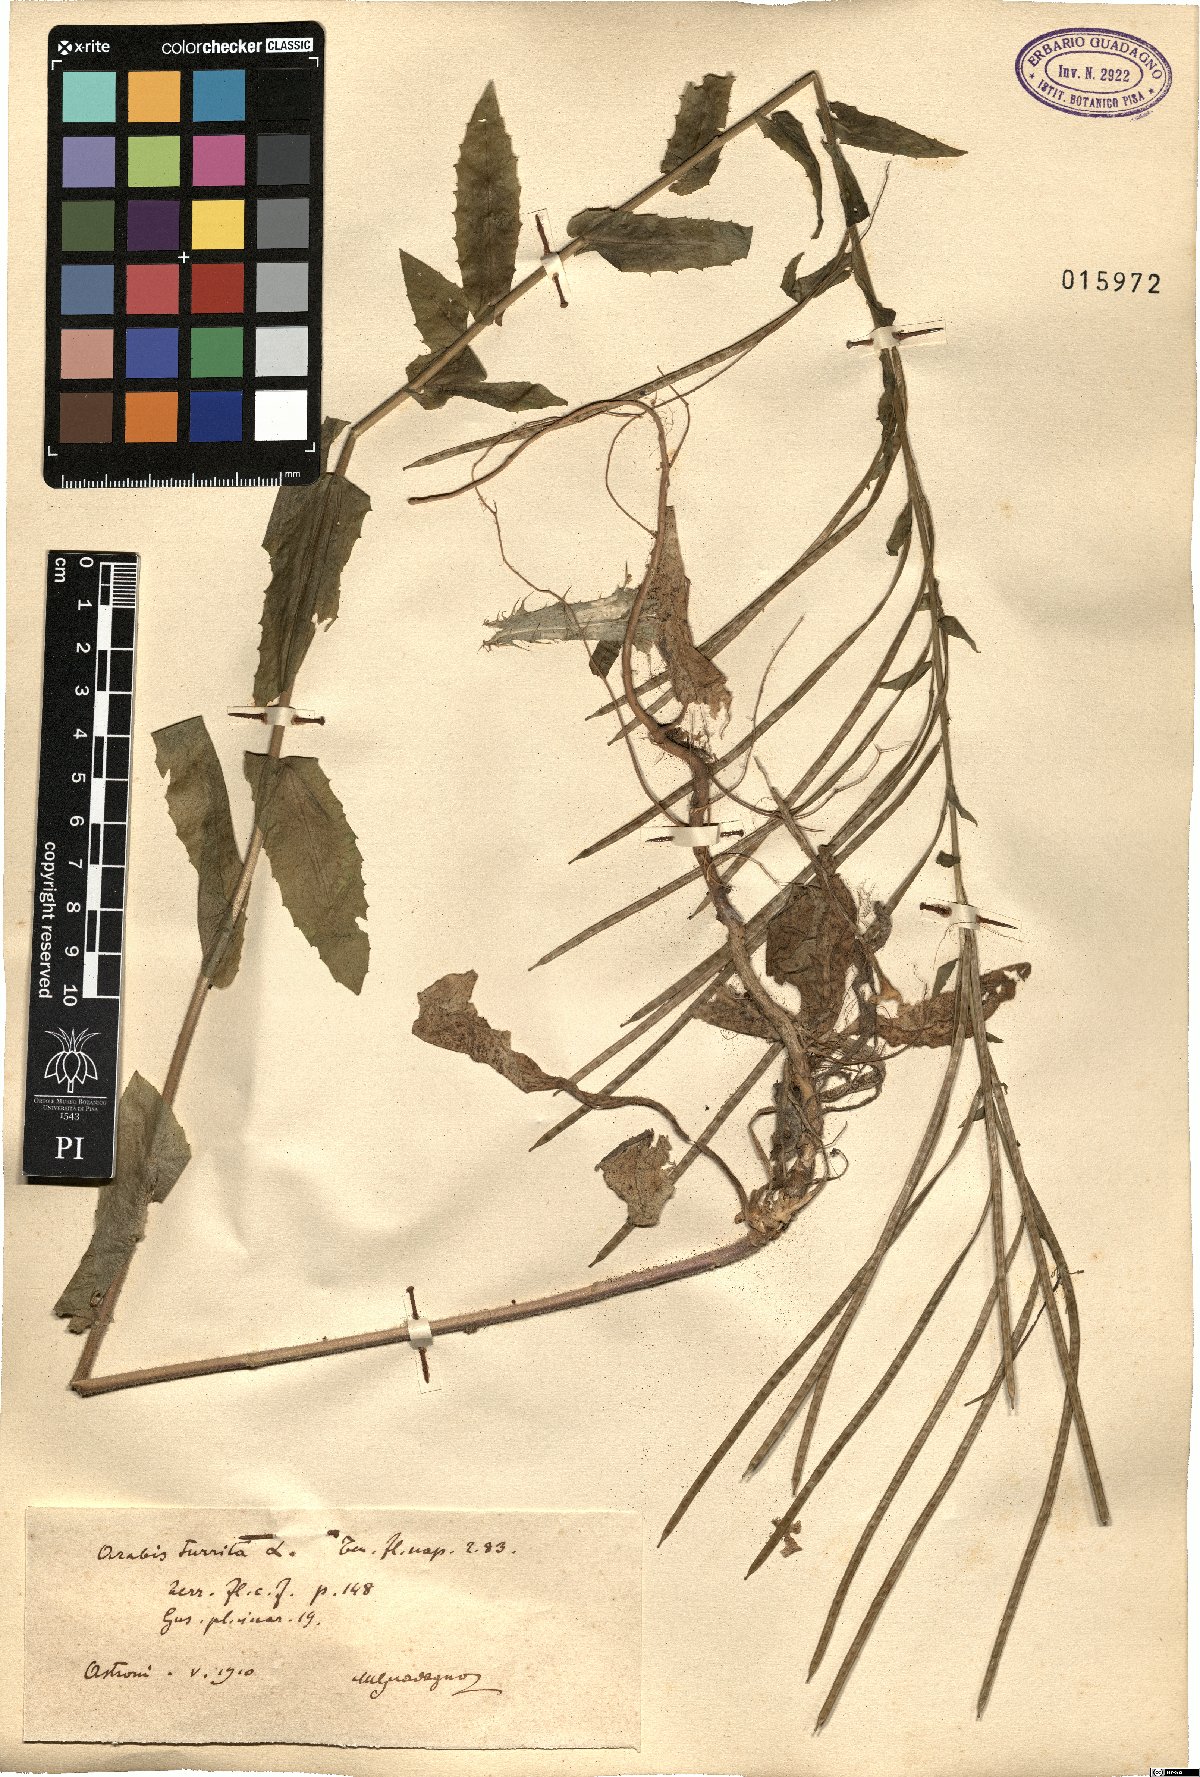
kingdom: Plantae
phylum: Tracheophyta
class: Magnoliopsida
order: Brassicales
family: Brassicaceae
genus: Pseudoturritis
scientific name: Pseudoturritis turrita
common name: Tower cress
